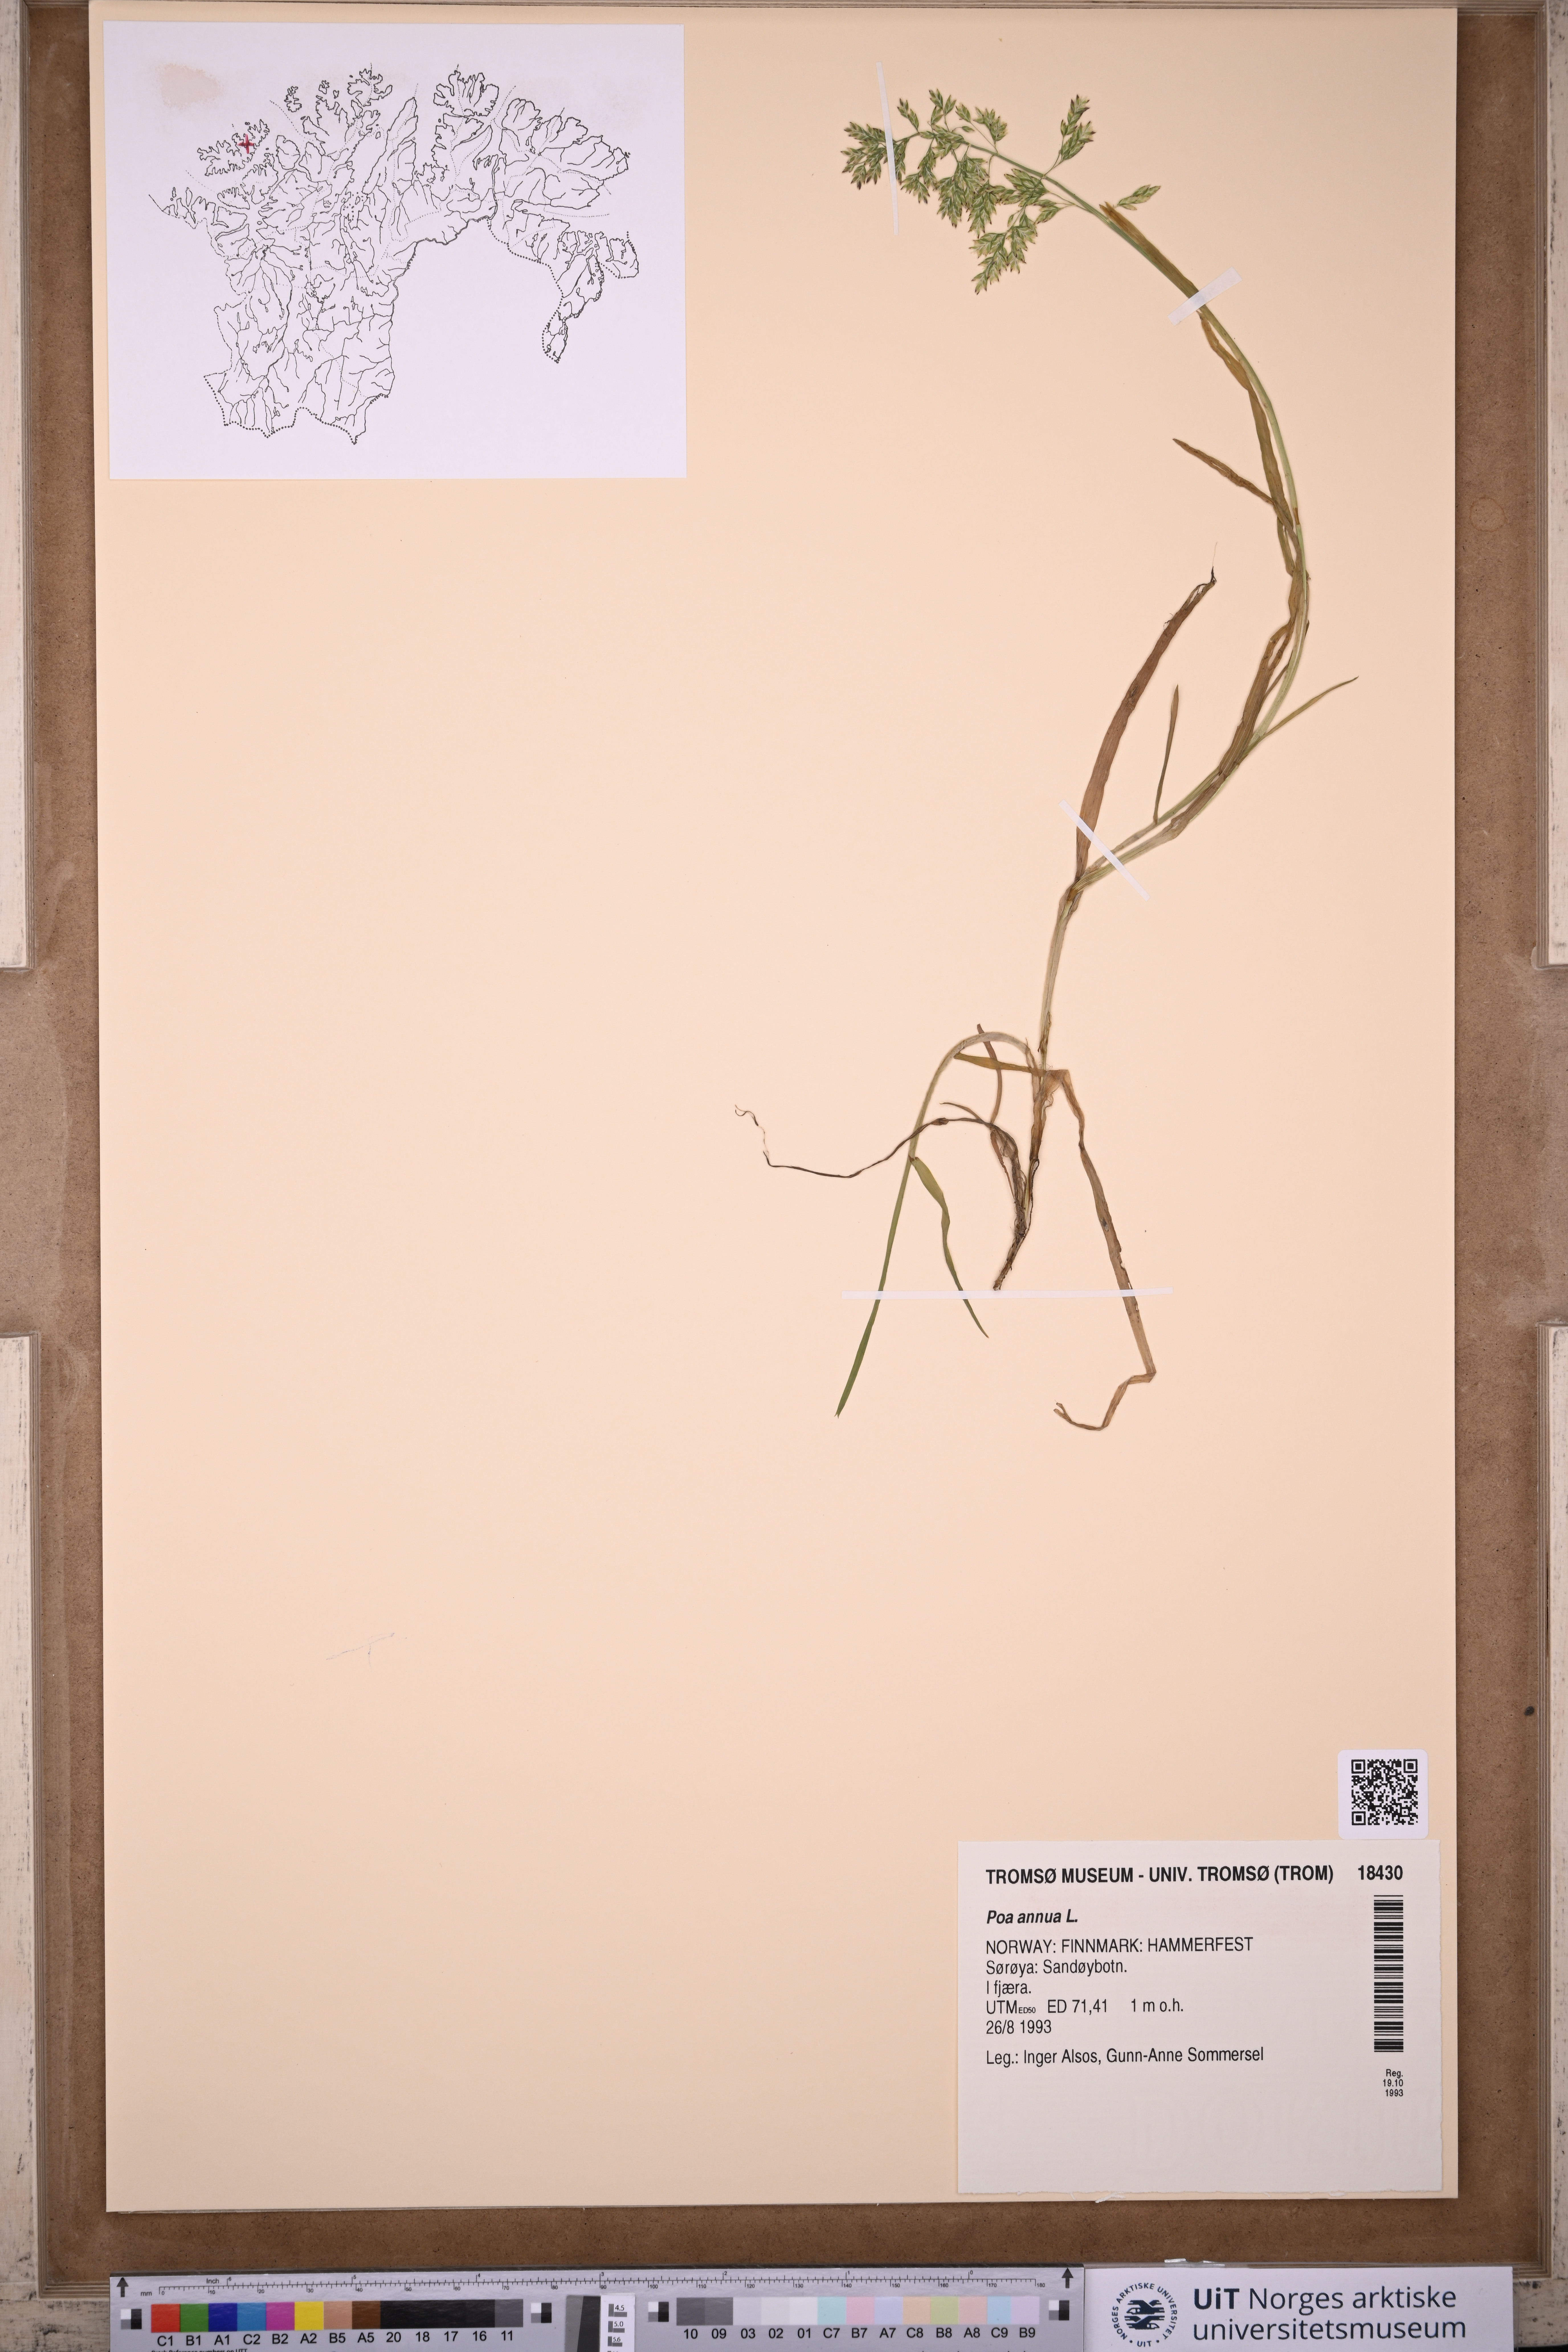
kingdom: Plantae
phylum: Tracheophyta
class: Liliopsida
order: Poales
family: Poaceae
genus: Poa
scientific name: Poa annua
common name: Annual bluegrass
